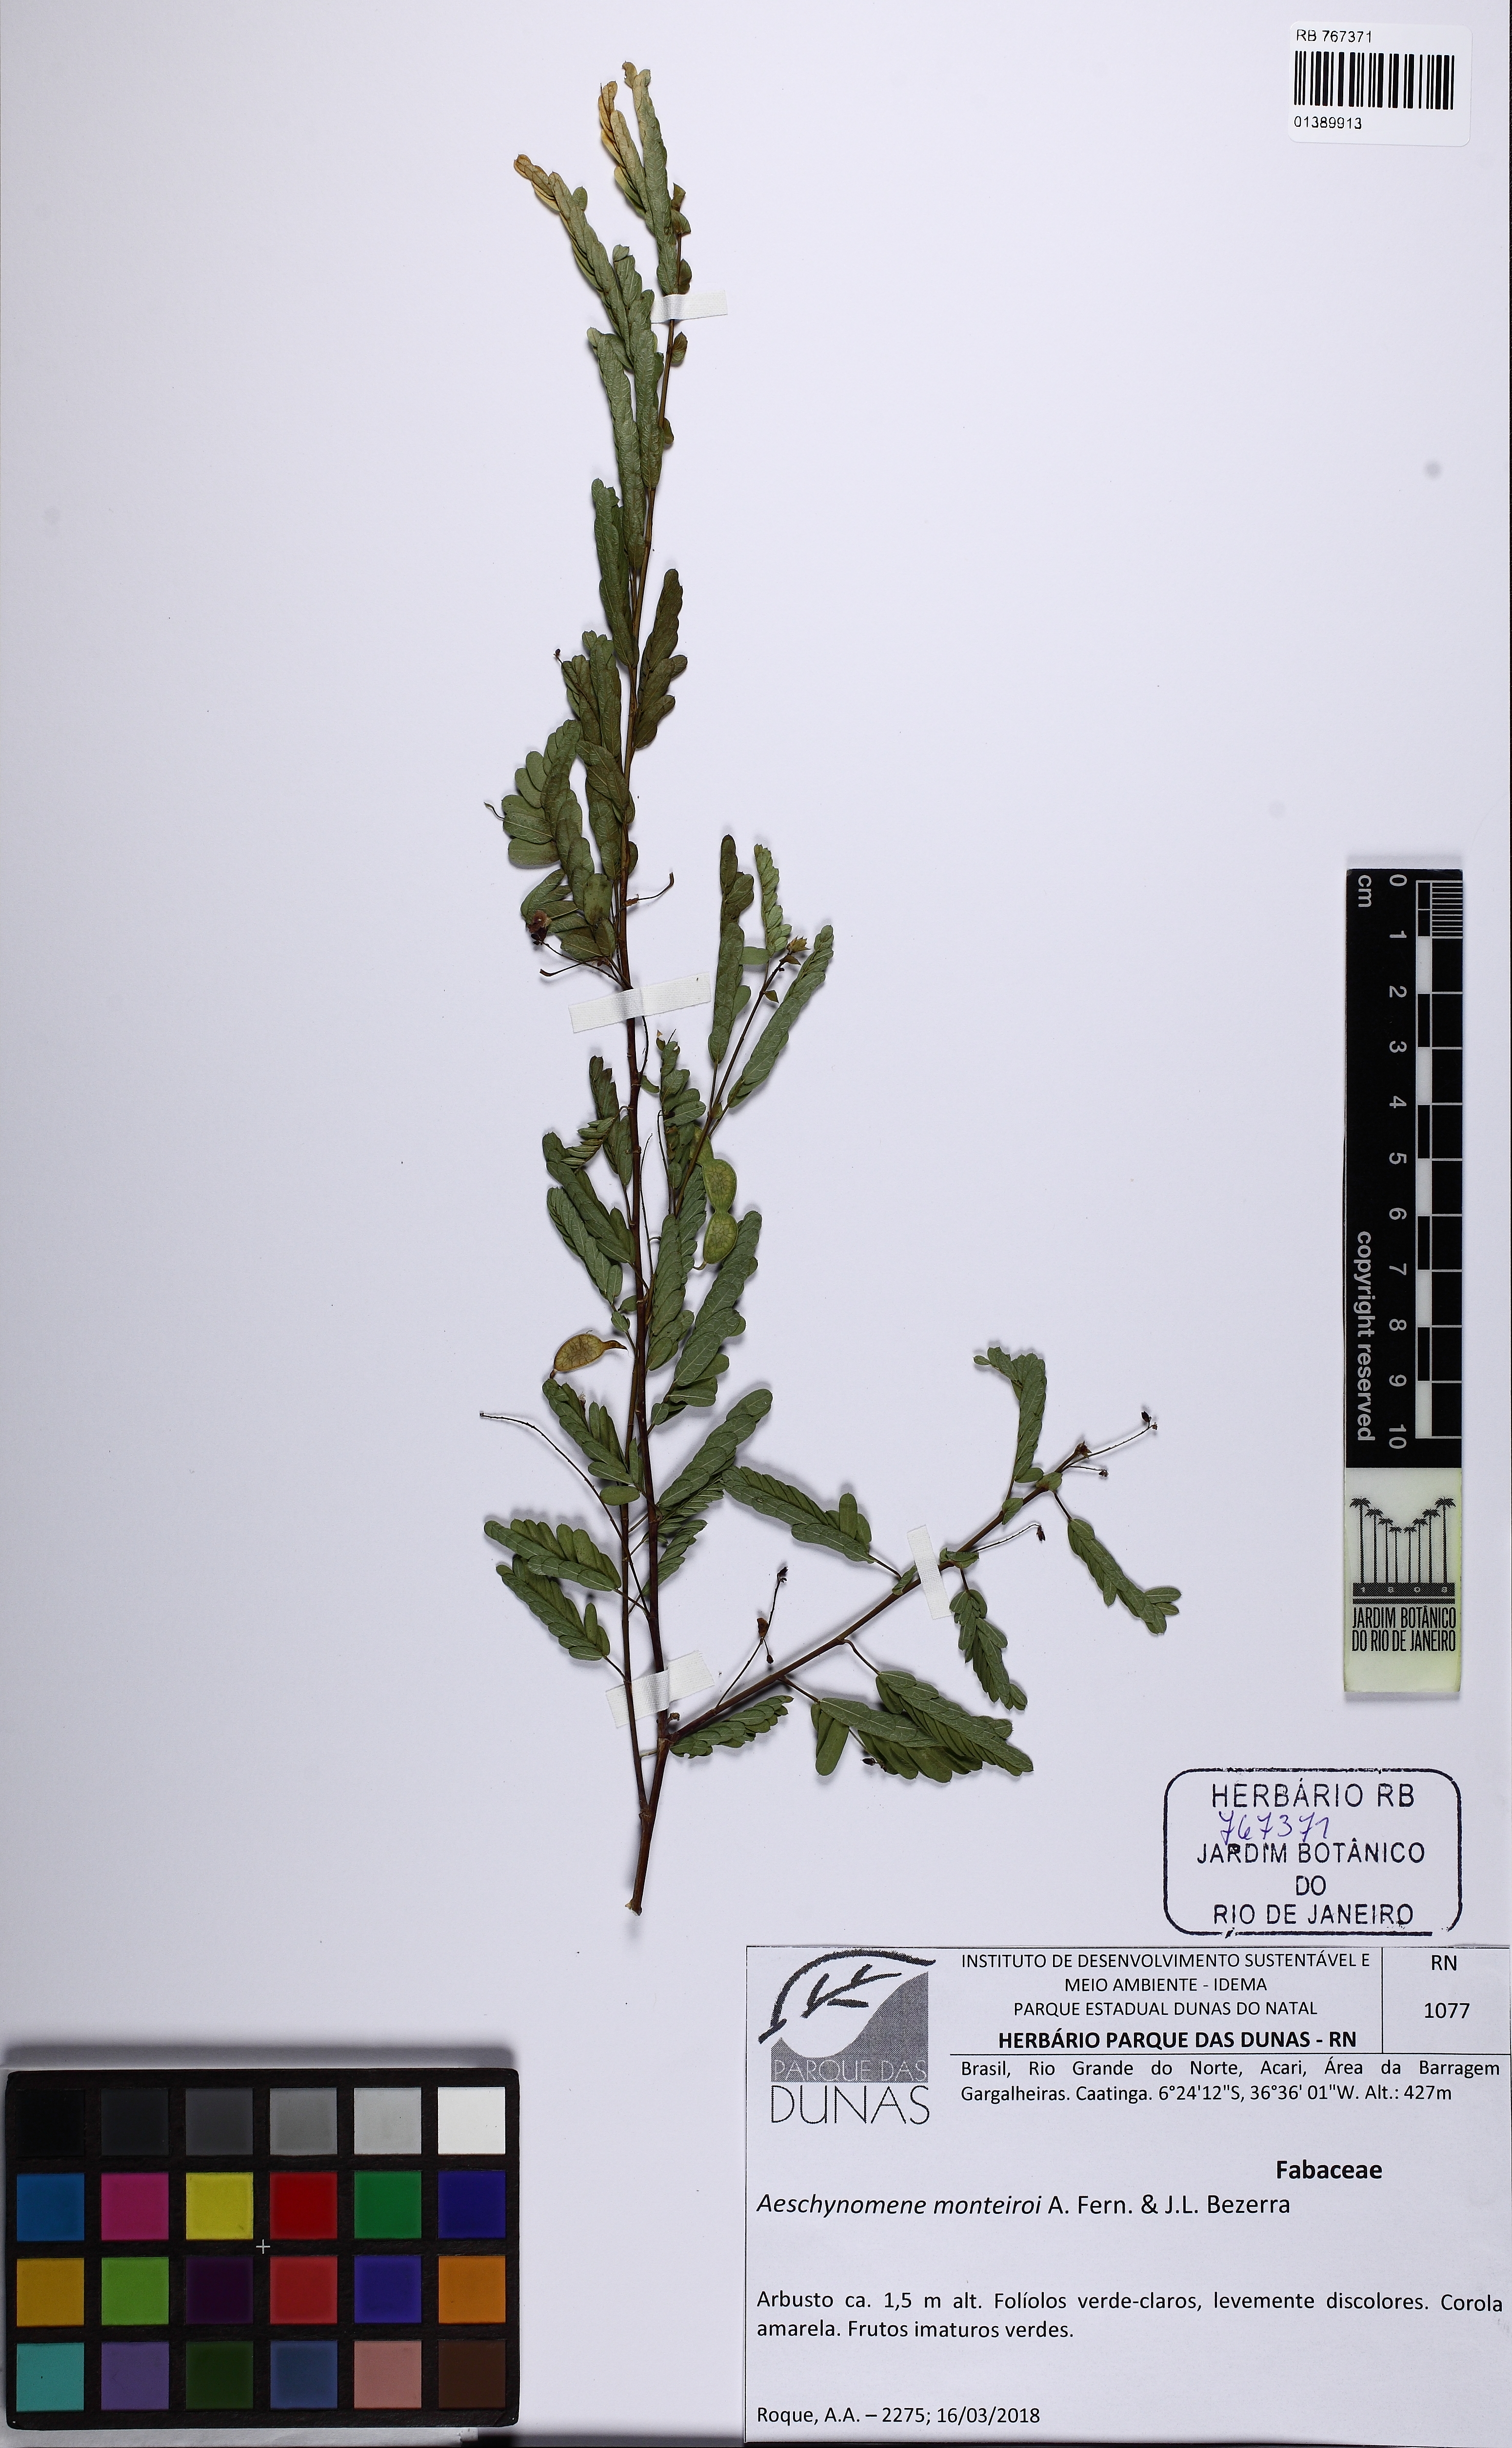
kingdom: Plantae
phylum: Tracheophyta
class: Magnoliopsida
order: Fabales
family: Fabaceae
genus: Ctenodon
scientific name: Ctenodon monteiroi
